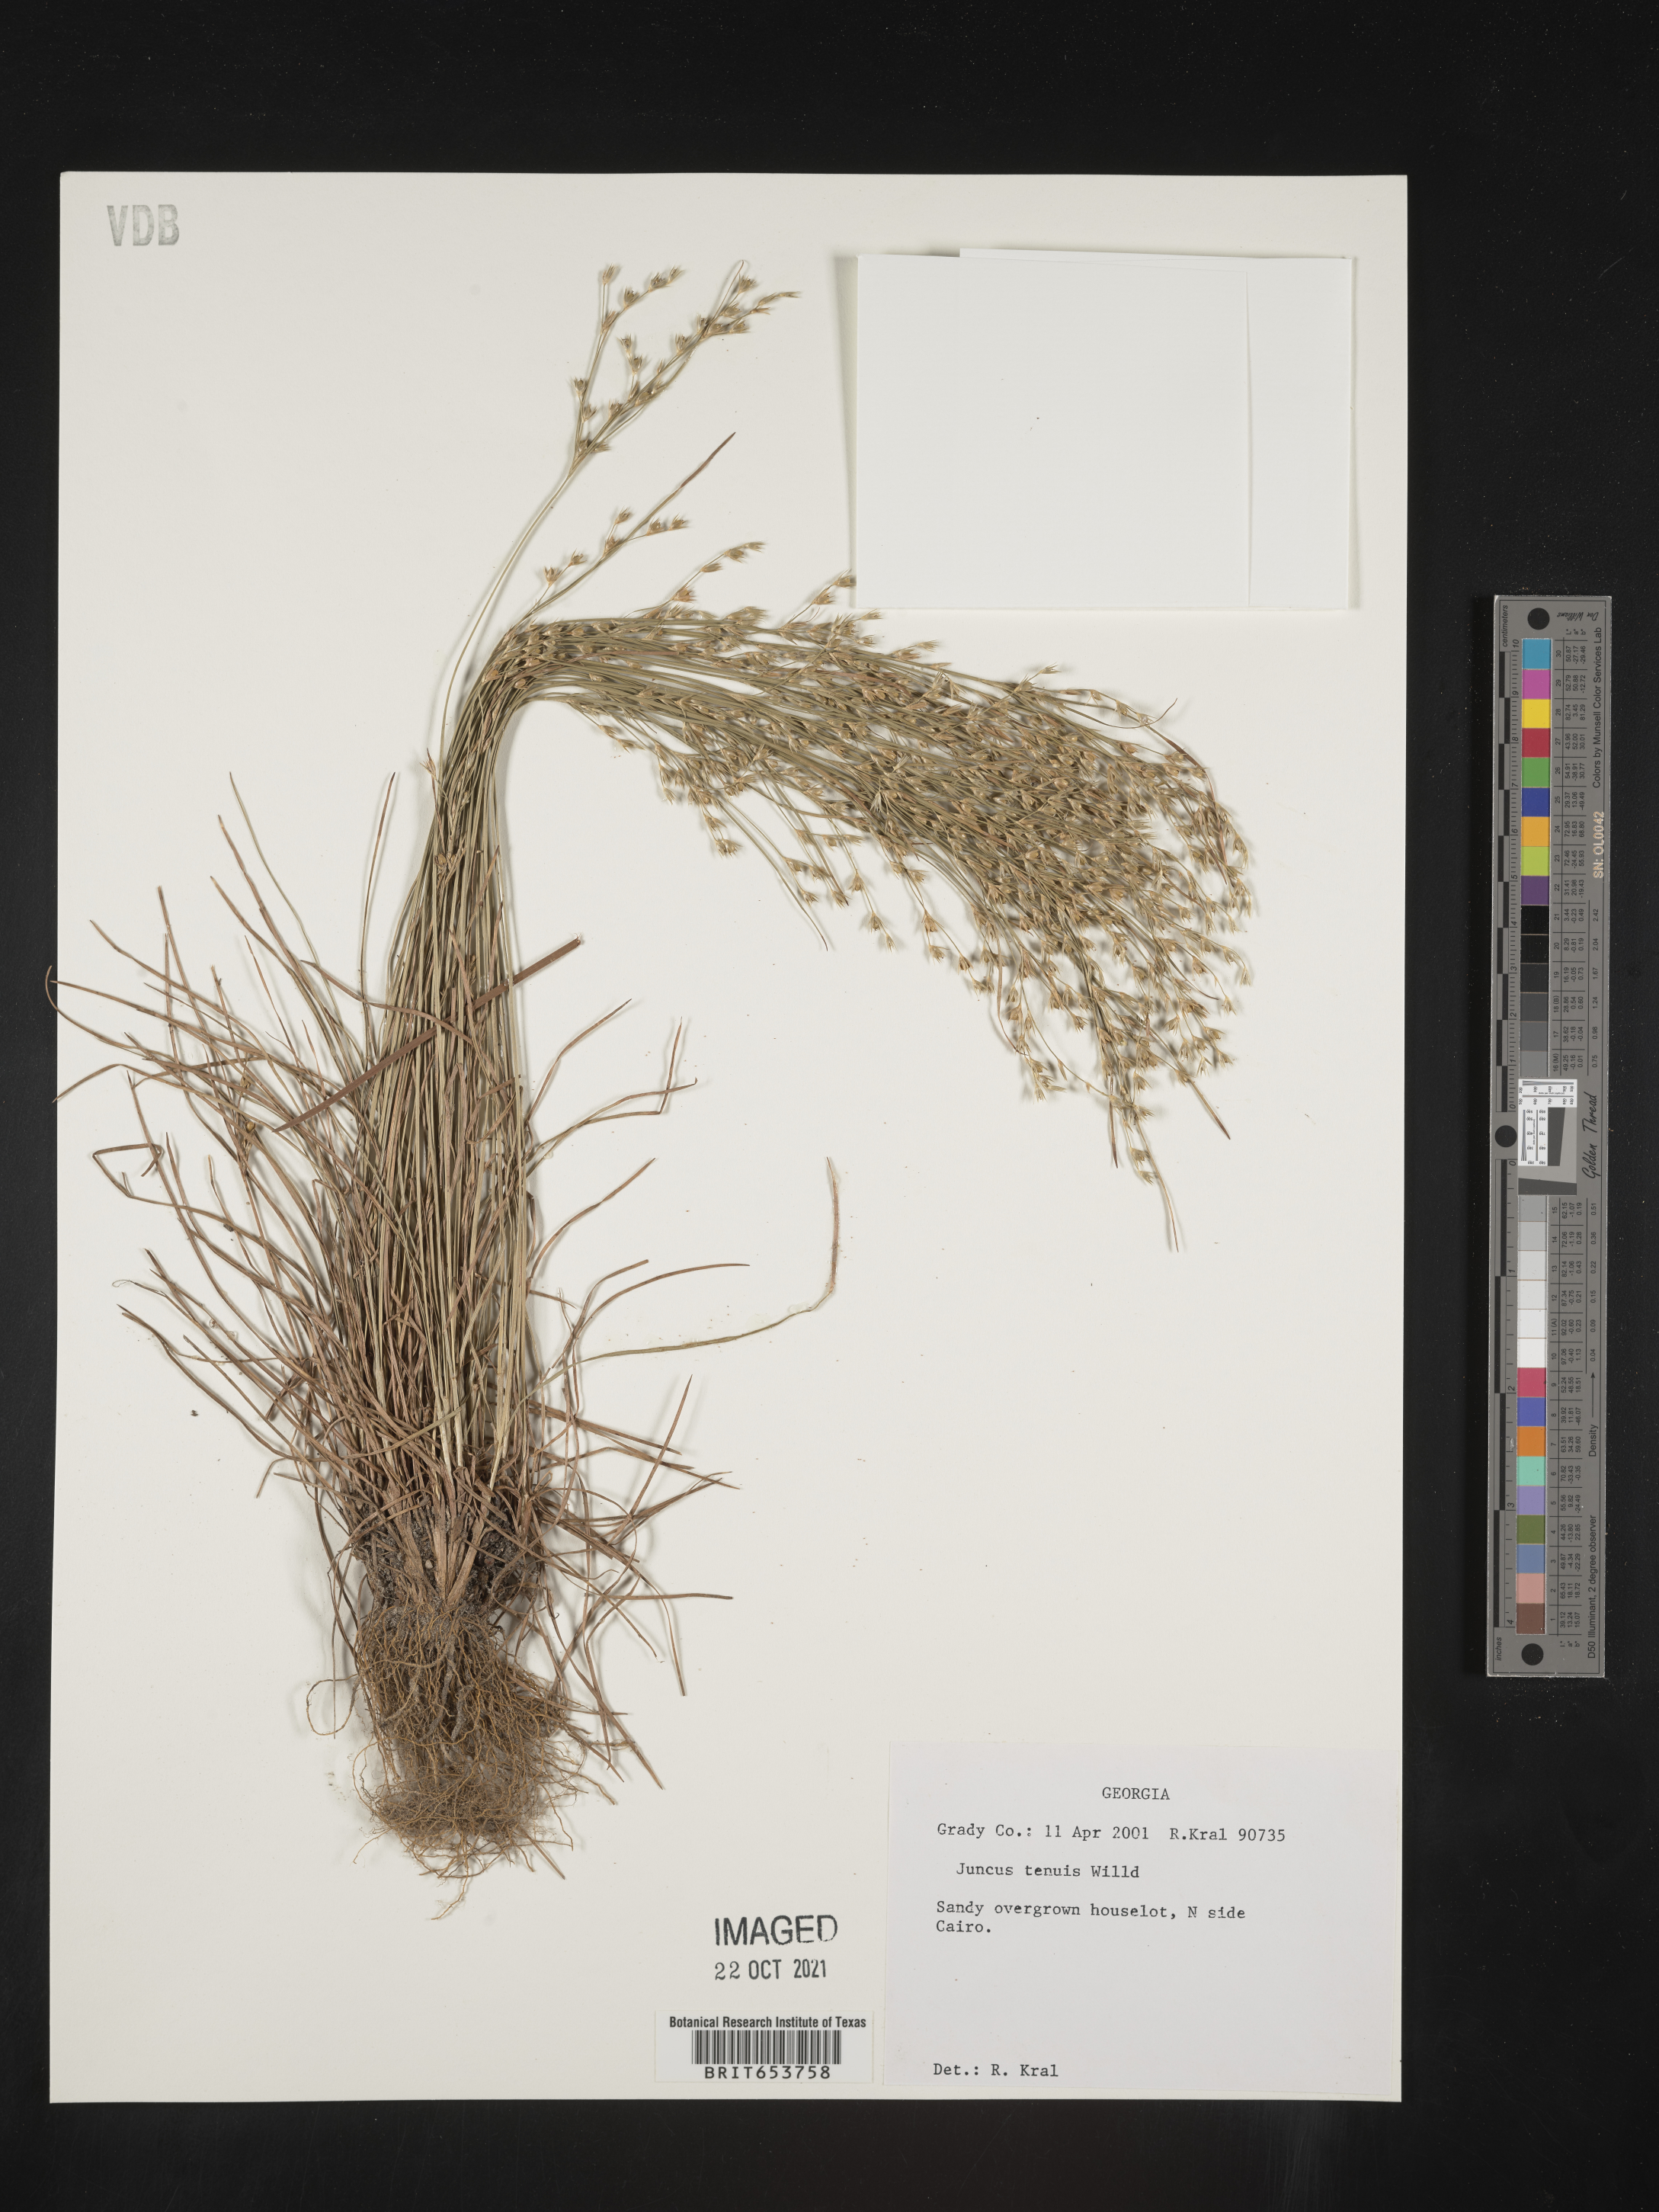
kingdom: Plantae
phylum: Tracheophyta
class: Liliopsida
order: Poales
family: Juncaceae
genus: Juncus
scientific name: Juncus tenuis
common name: Slender rush
